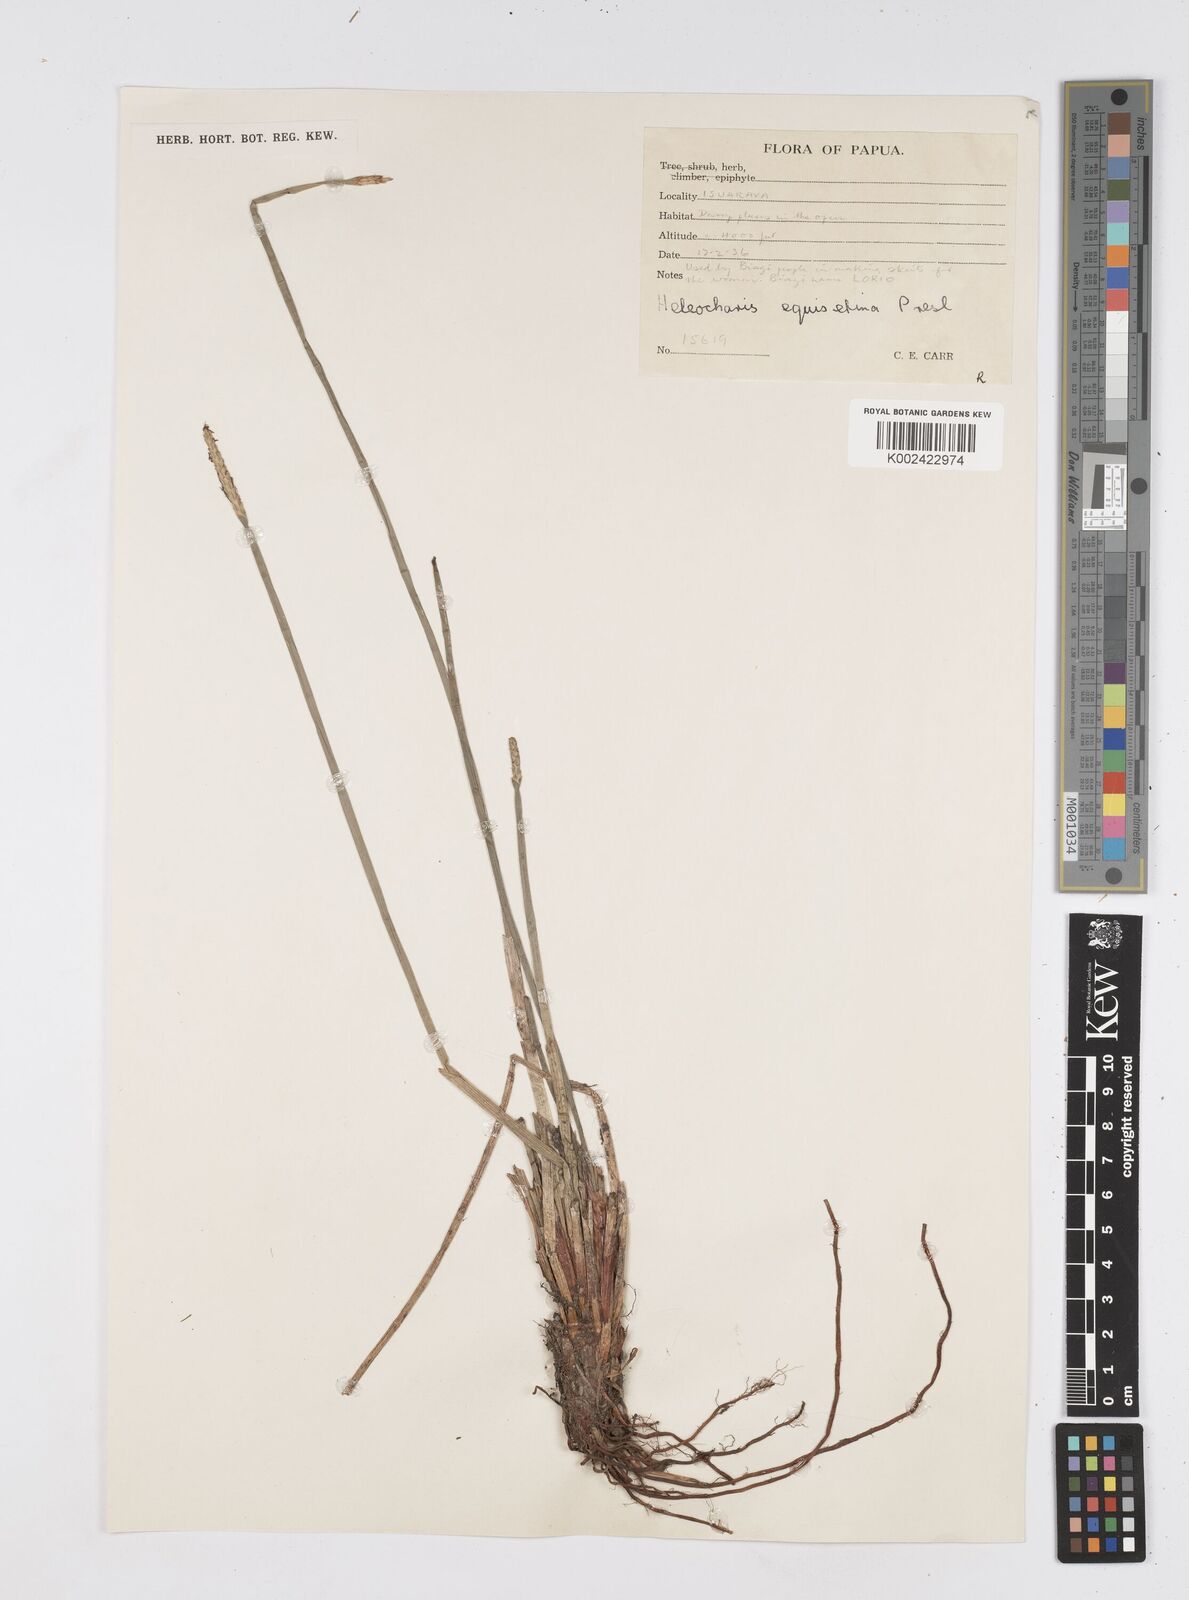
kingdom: Plantae
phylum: Tracheophyta
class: Liliopsida
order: Poales
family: Cyperaceae
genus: Eleocharis
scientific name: Eleocharis dulcis
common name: Chinese water chestnut
